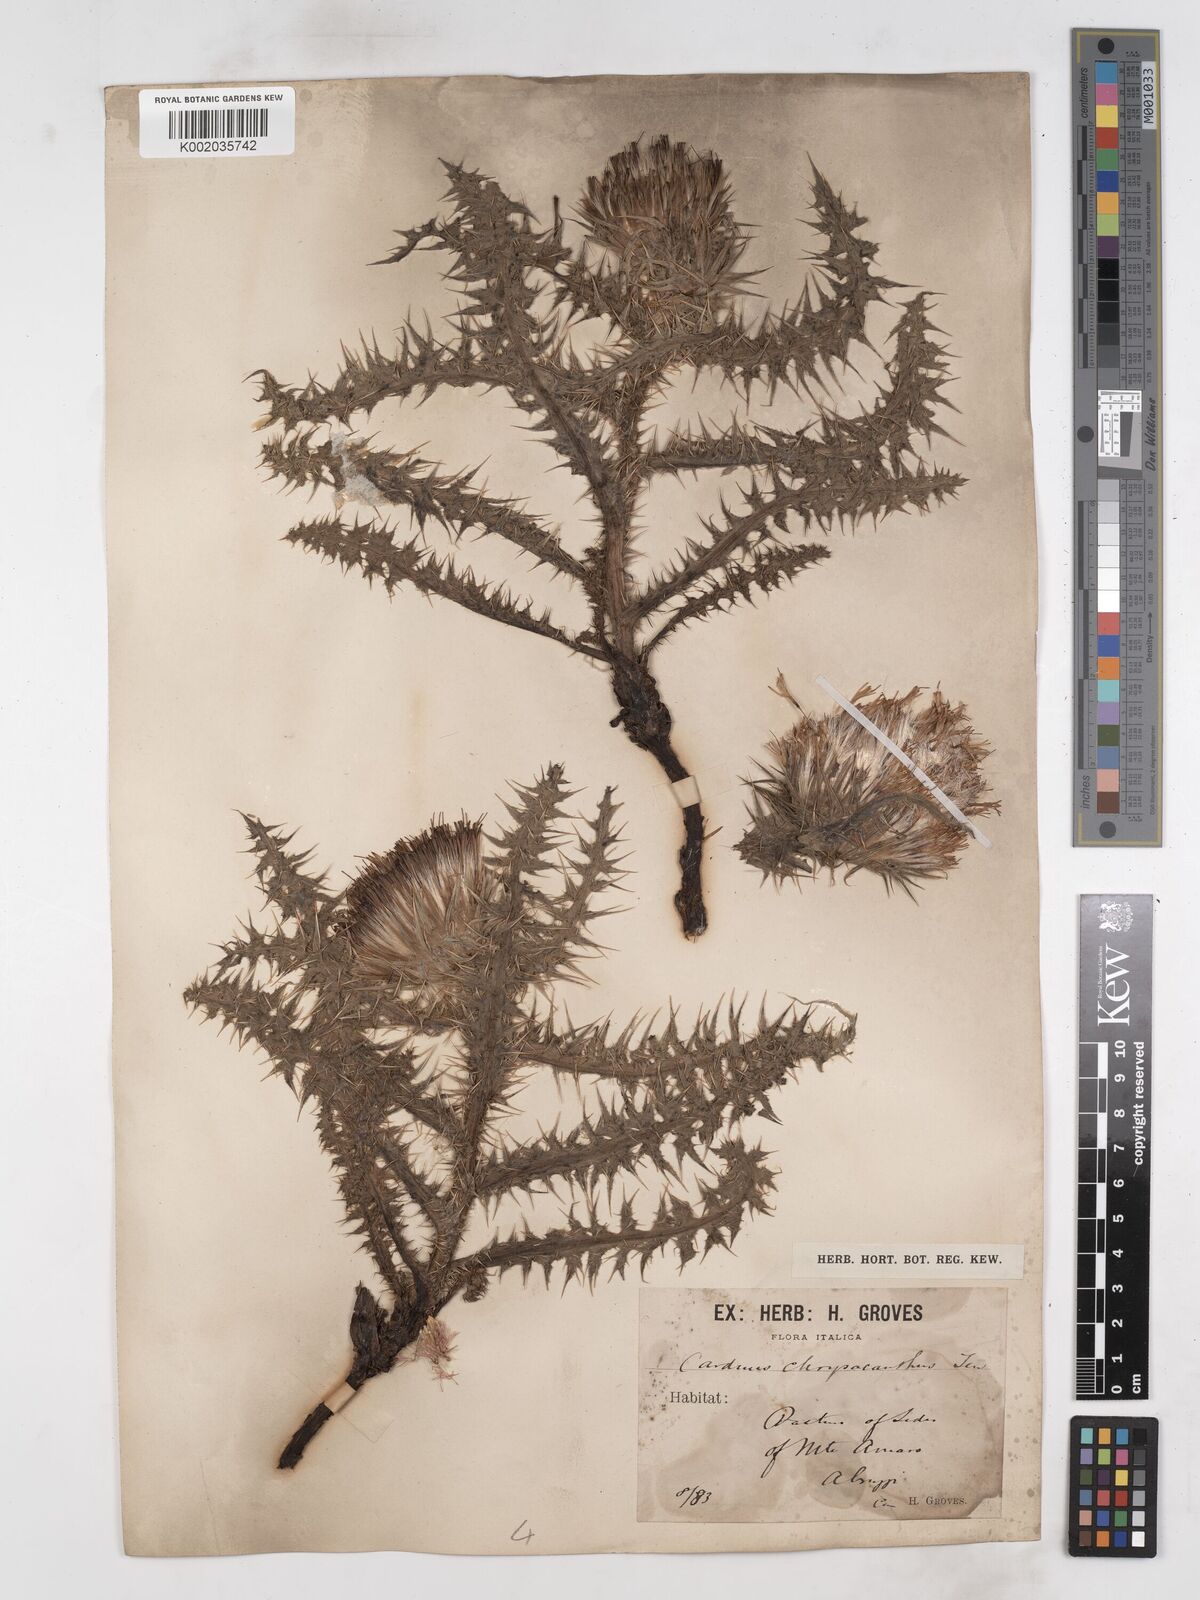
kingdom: Plantae
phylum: Tracheophyta
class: Magnoliopsida
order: Asterales
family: Asteraceae
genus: Carduus
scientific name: Carduus chrysacanthus
